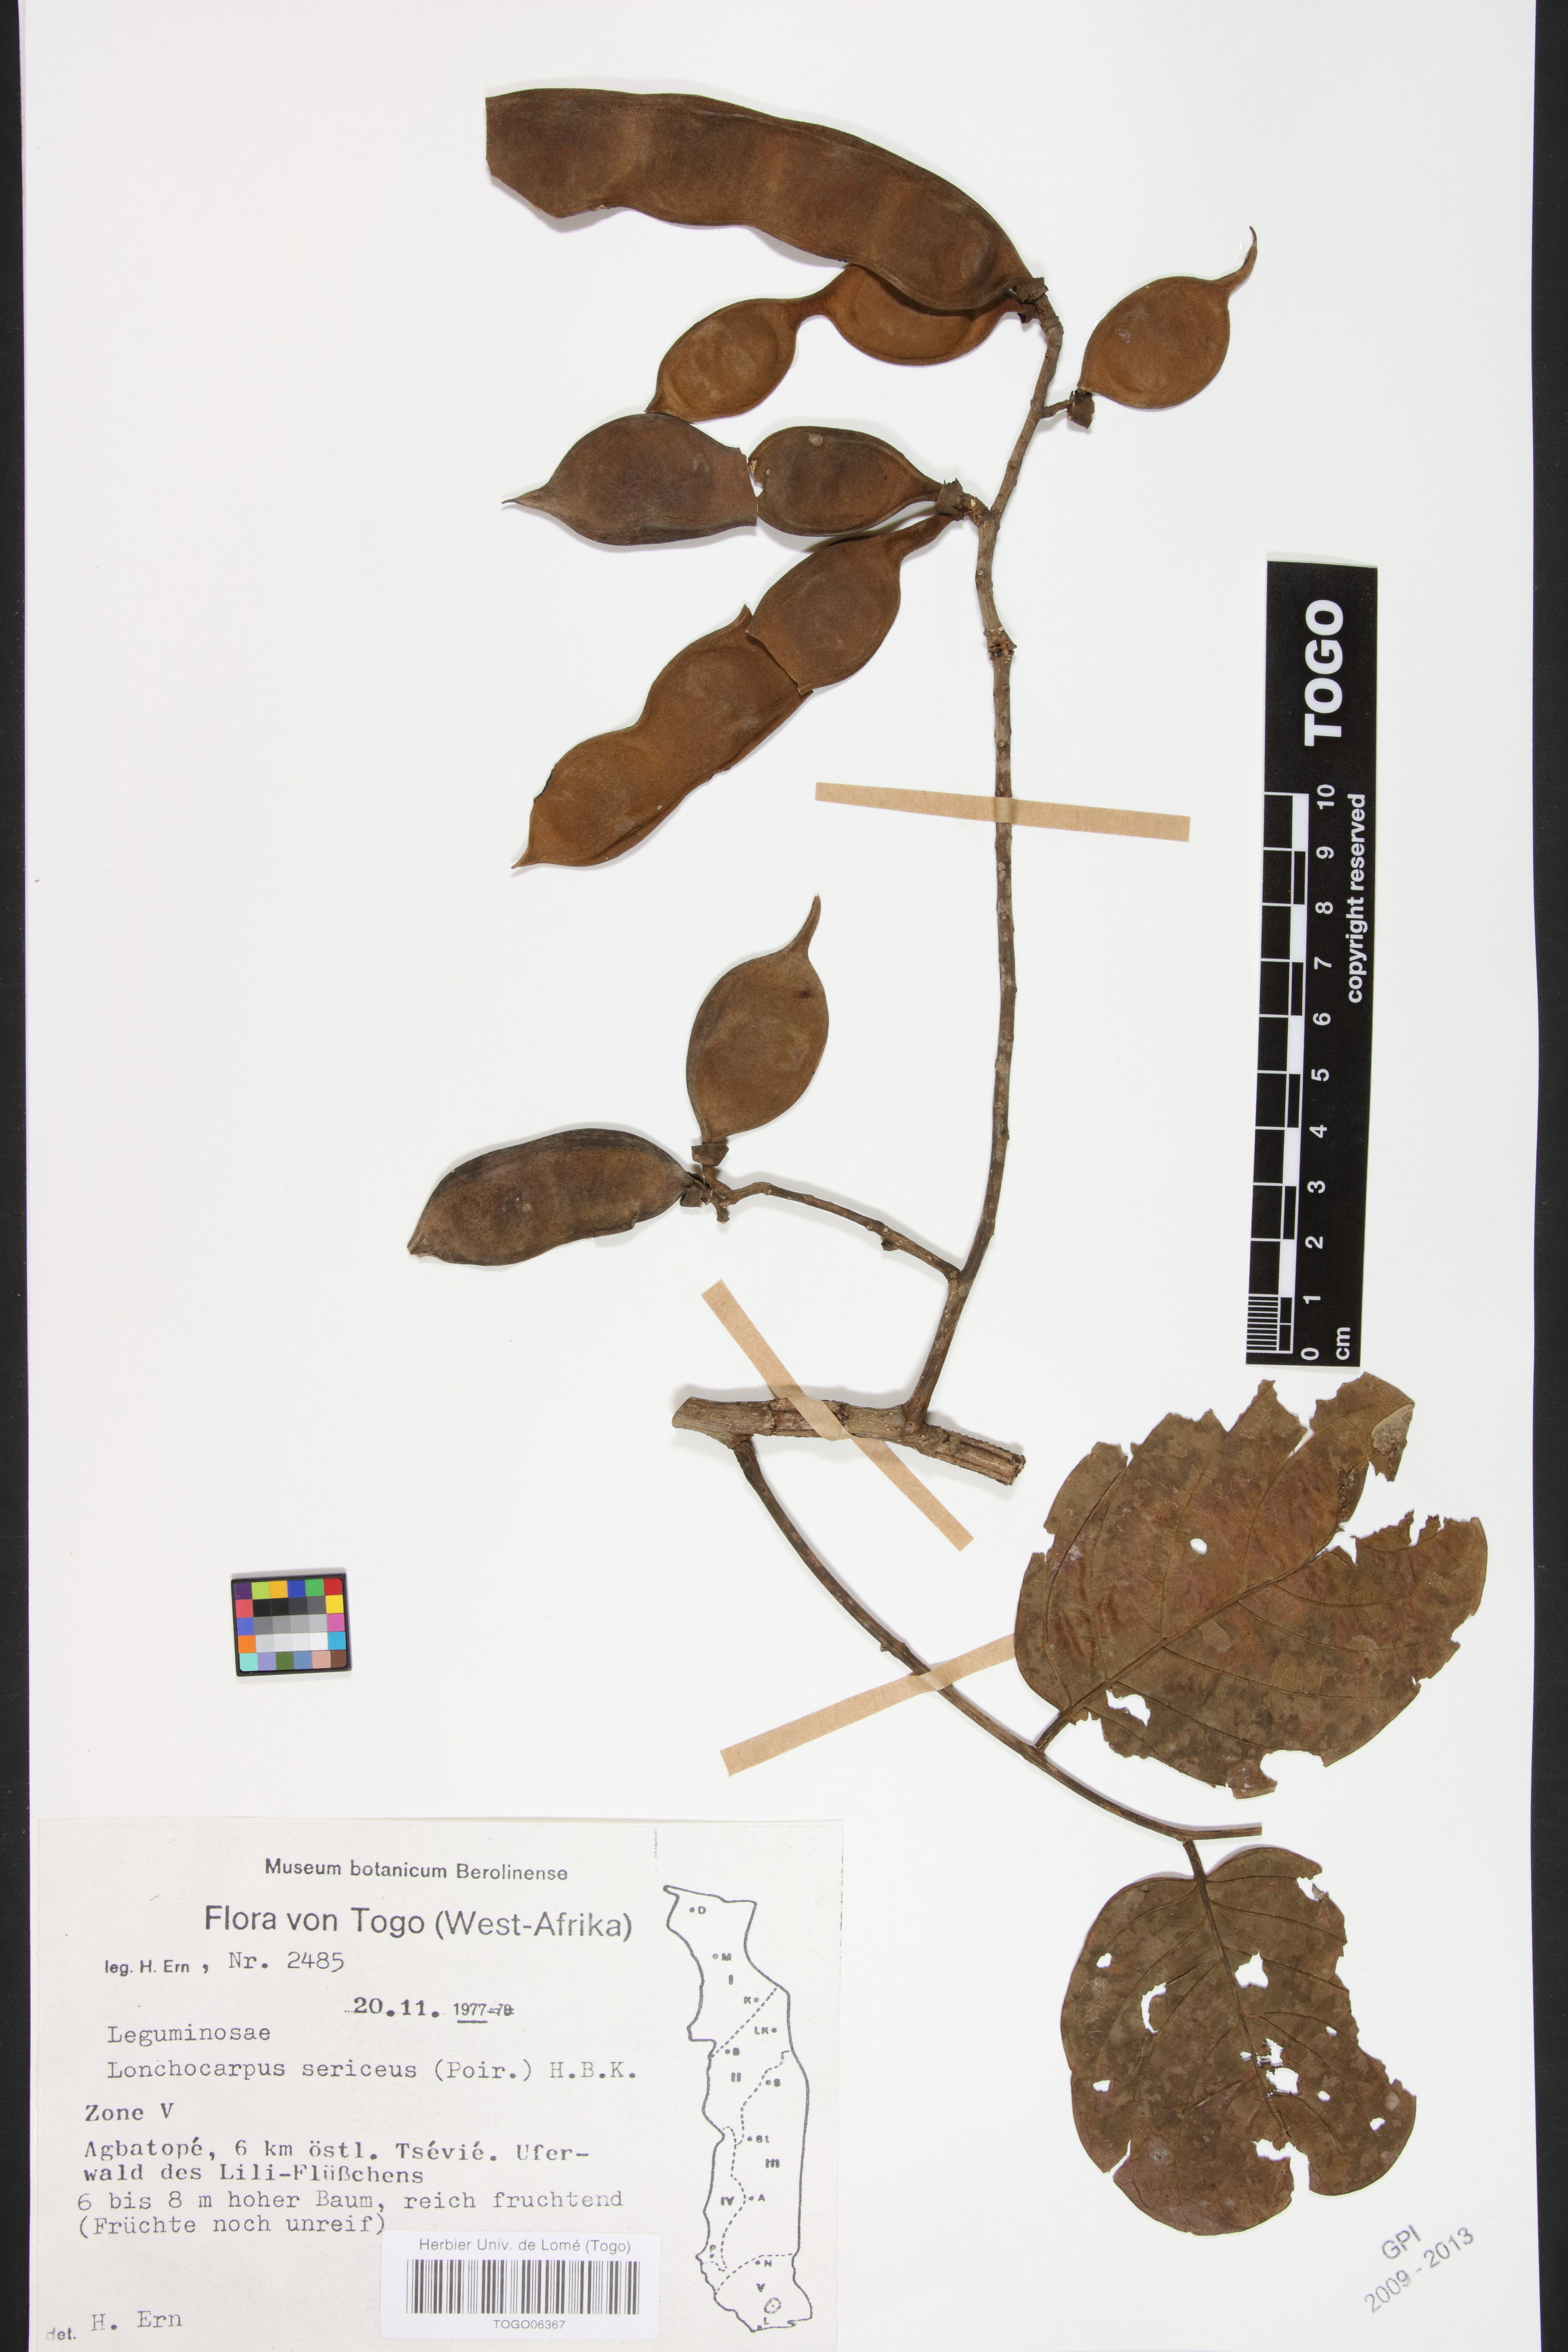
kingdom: Plantae
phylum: Tracheophyta
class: Magnoliopsida
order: Fabales
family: Fabaceae
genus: Lonchocarpus
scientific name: Lonchocarpus sericeus
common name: Savonette
